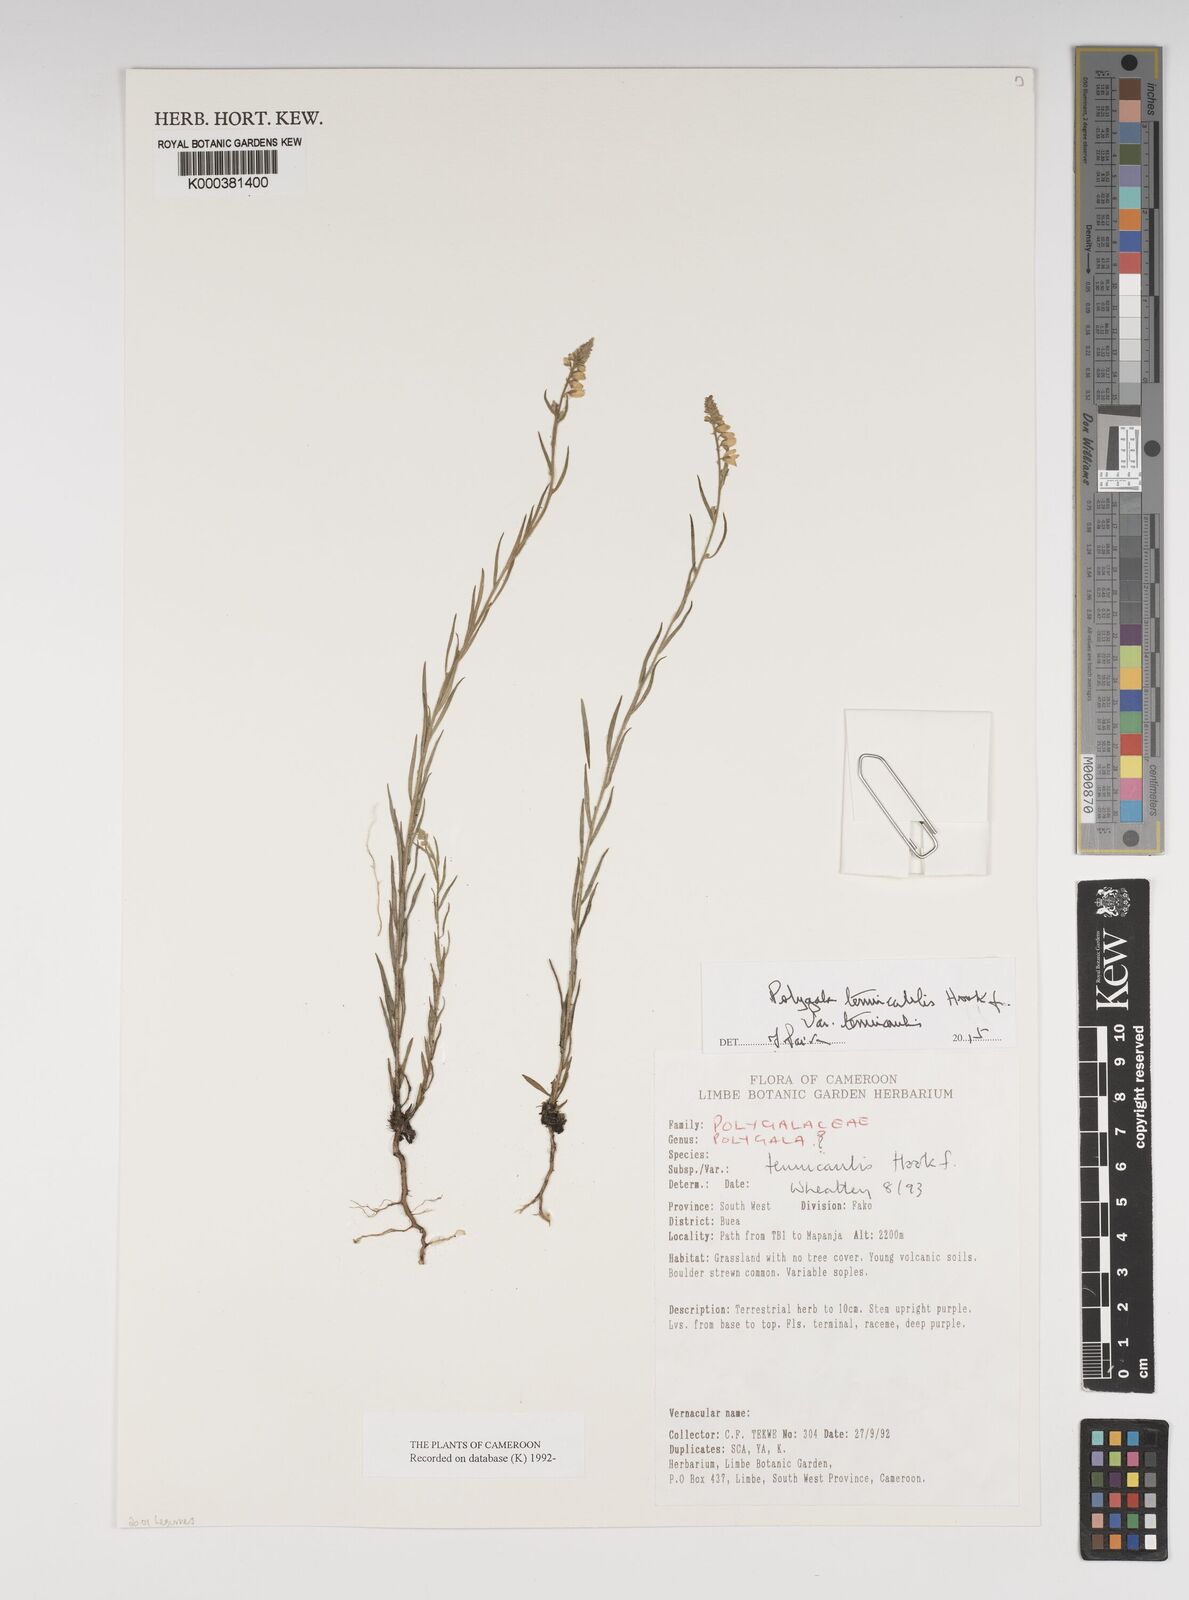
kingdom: Plantae
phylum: Tracheophyta
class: Magnoliopsida
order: Fabales
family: Polygalaceae
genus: Polygala
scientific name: Polygala tenuicaulis
